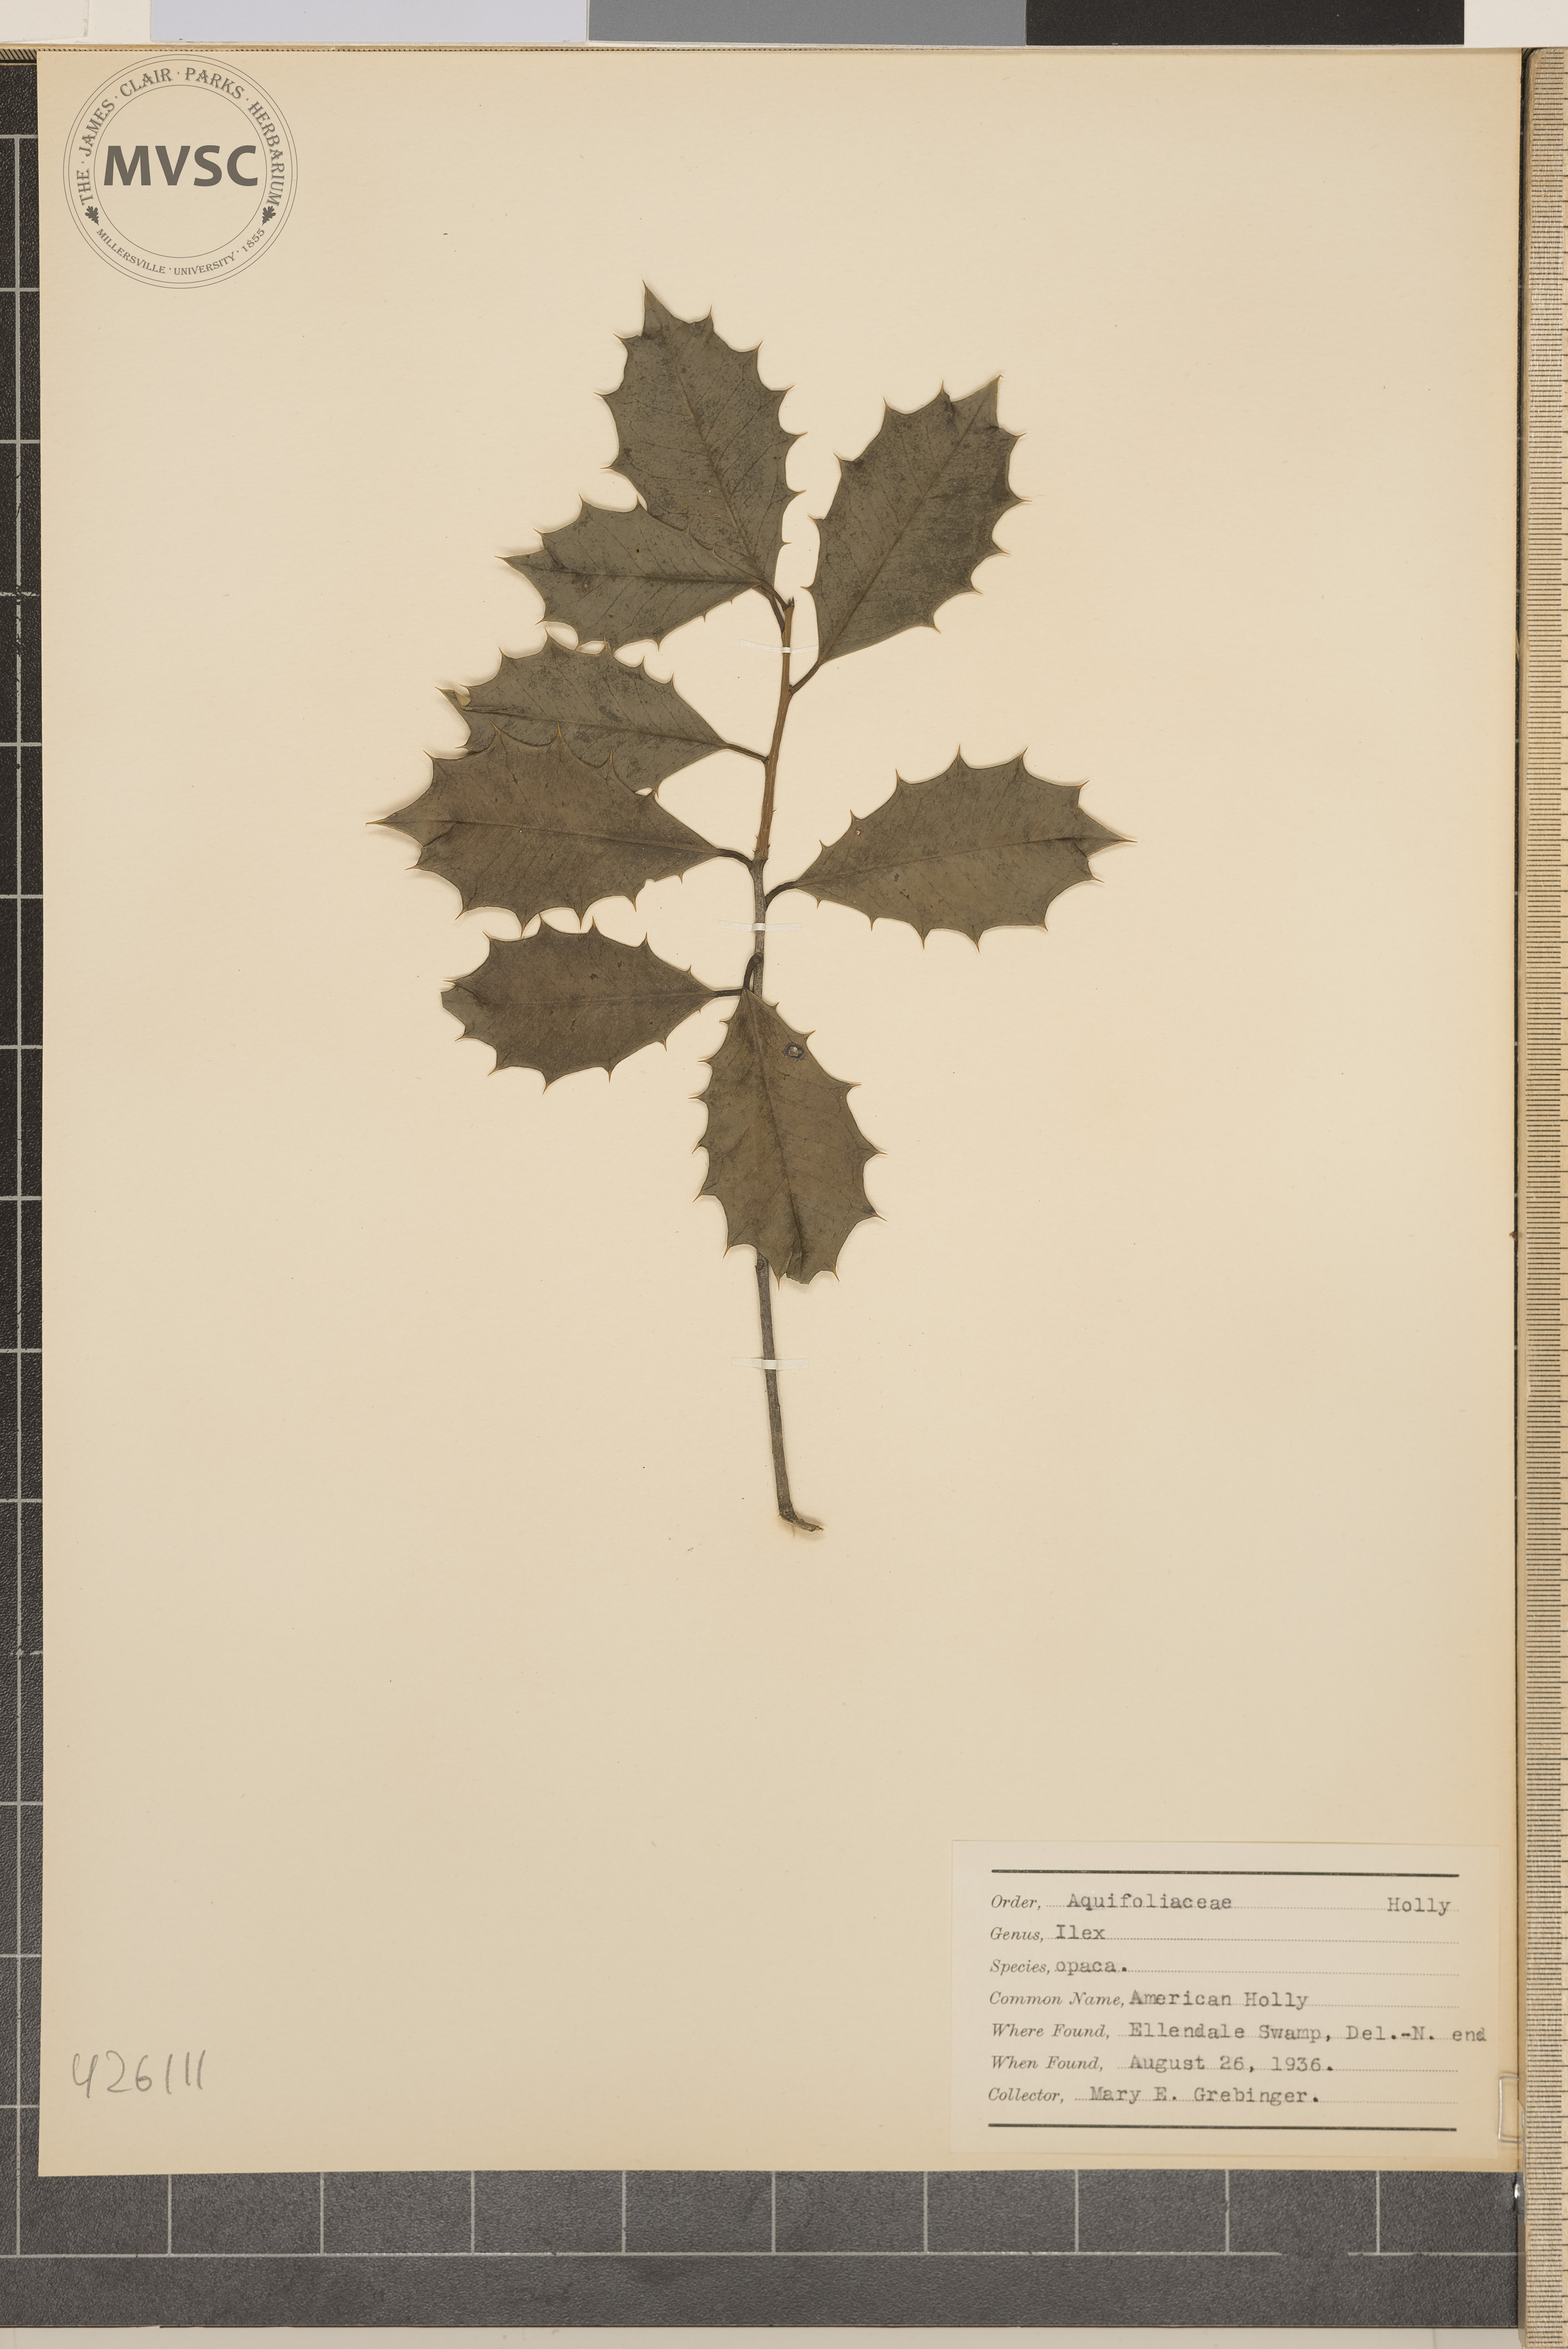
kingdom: Plantae
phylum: Tracheophyta
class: Magnoliopsida
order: Aquifoliales
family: Aquifoliaceae
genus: Ilex
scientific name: Ilex opaca
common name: American holly
